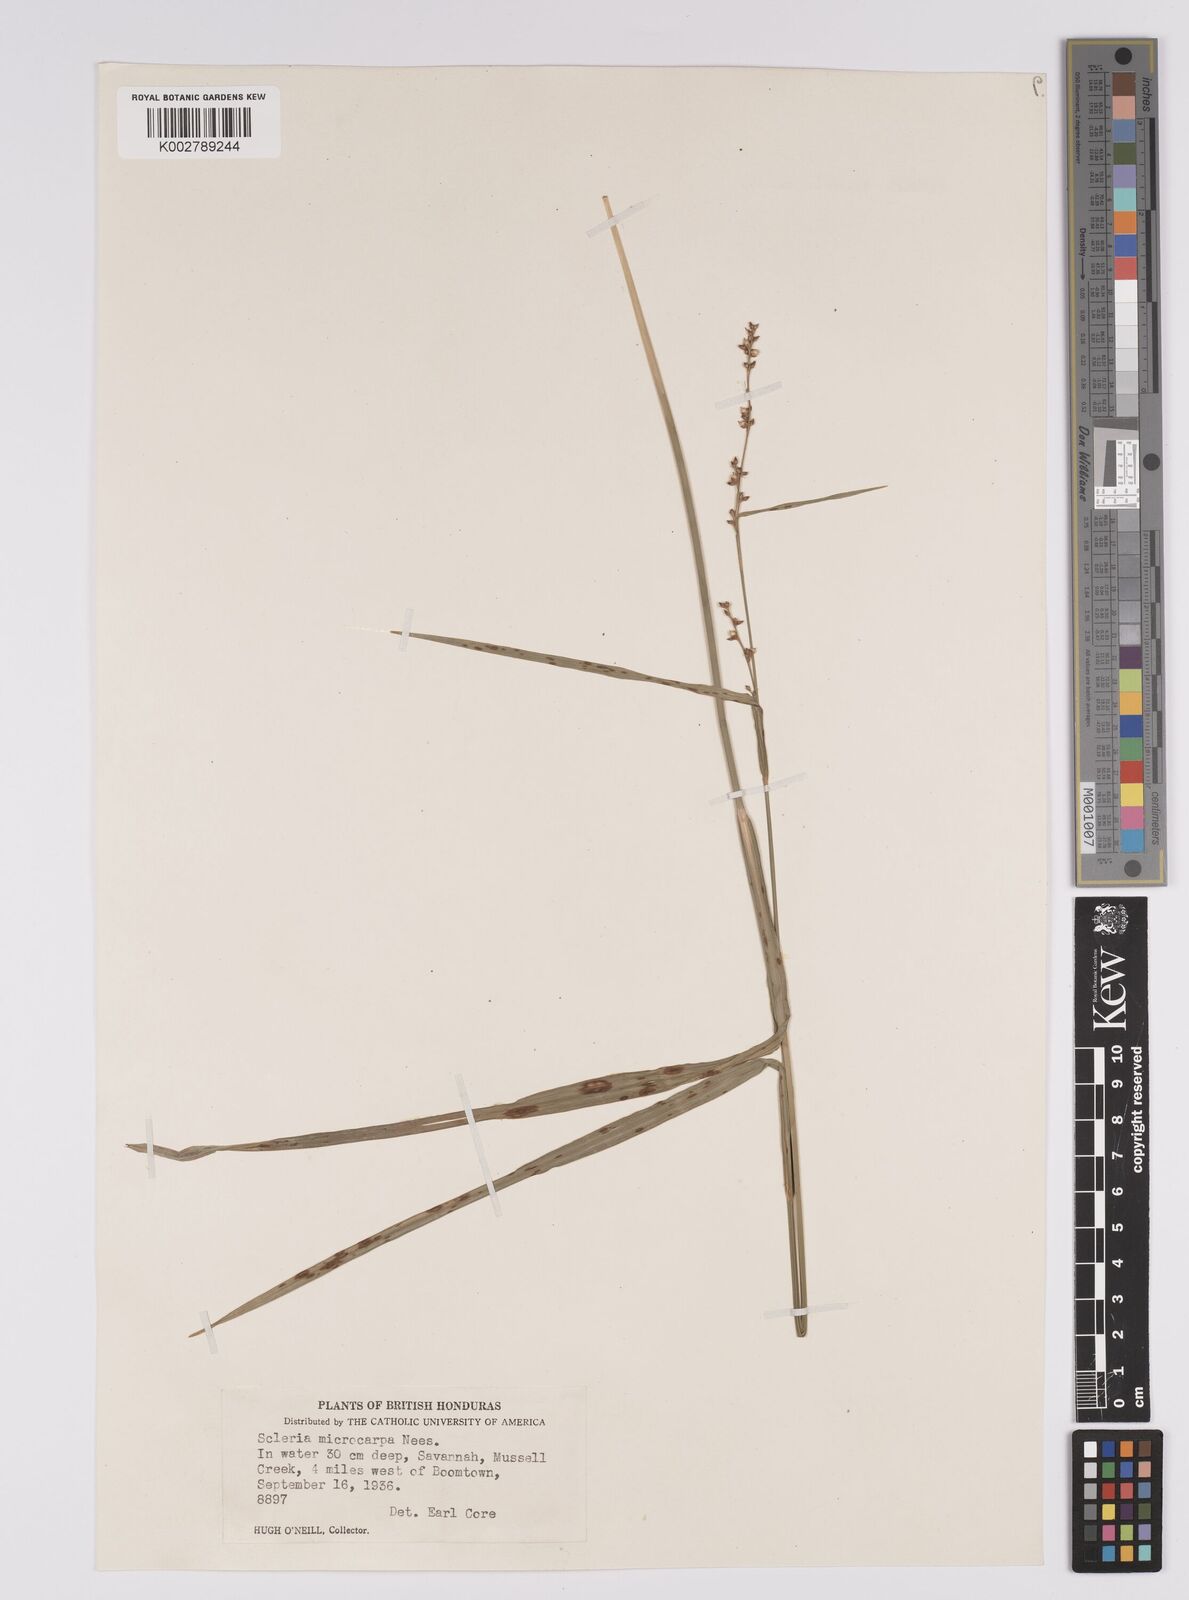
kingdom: Plantae
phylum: Tracheophyta
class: Liliopsida
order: Poales
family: Cyperaceae
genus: Scleria
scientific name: Scleria microcarpa
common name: Tropical nutrush
